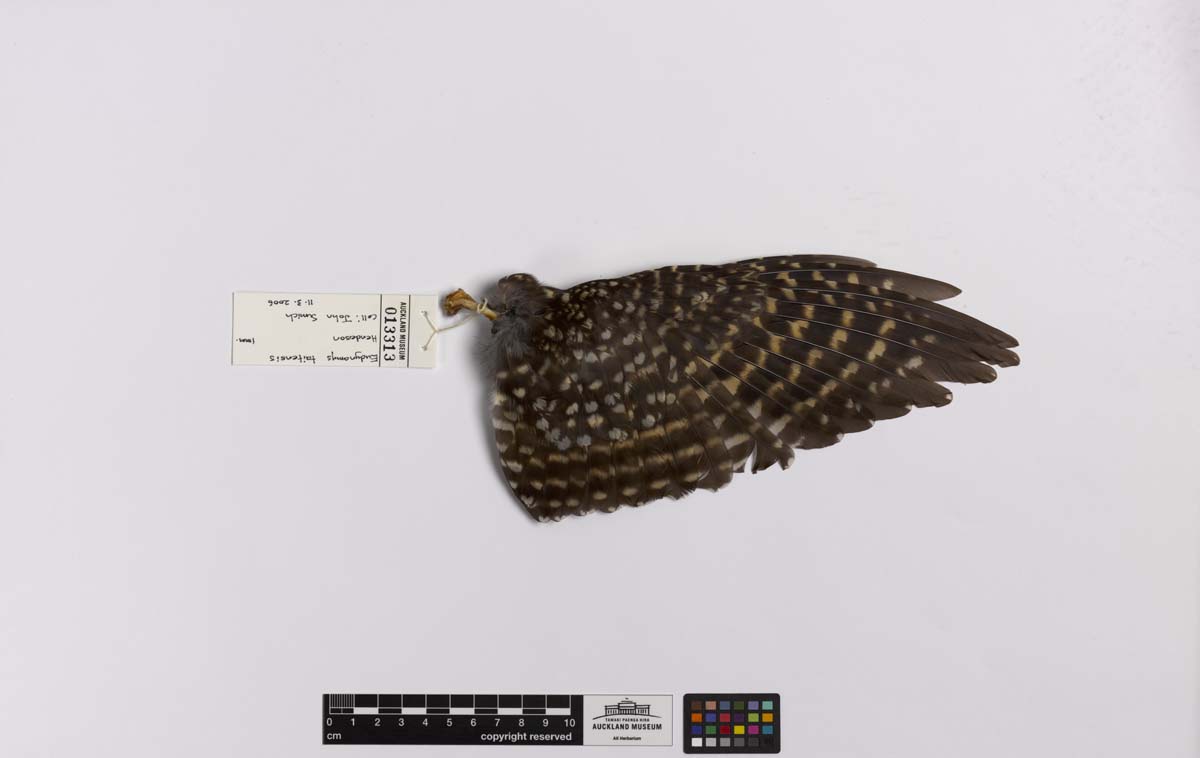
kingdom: Animalia
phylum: Chordata
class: Aves
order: Cuculiformes
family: Cuculidae
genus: Urodynamis
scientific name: Urodynamis taitensis
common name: Long-tailed koel
